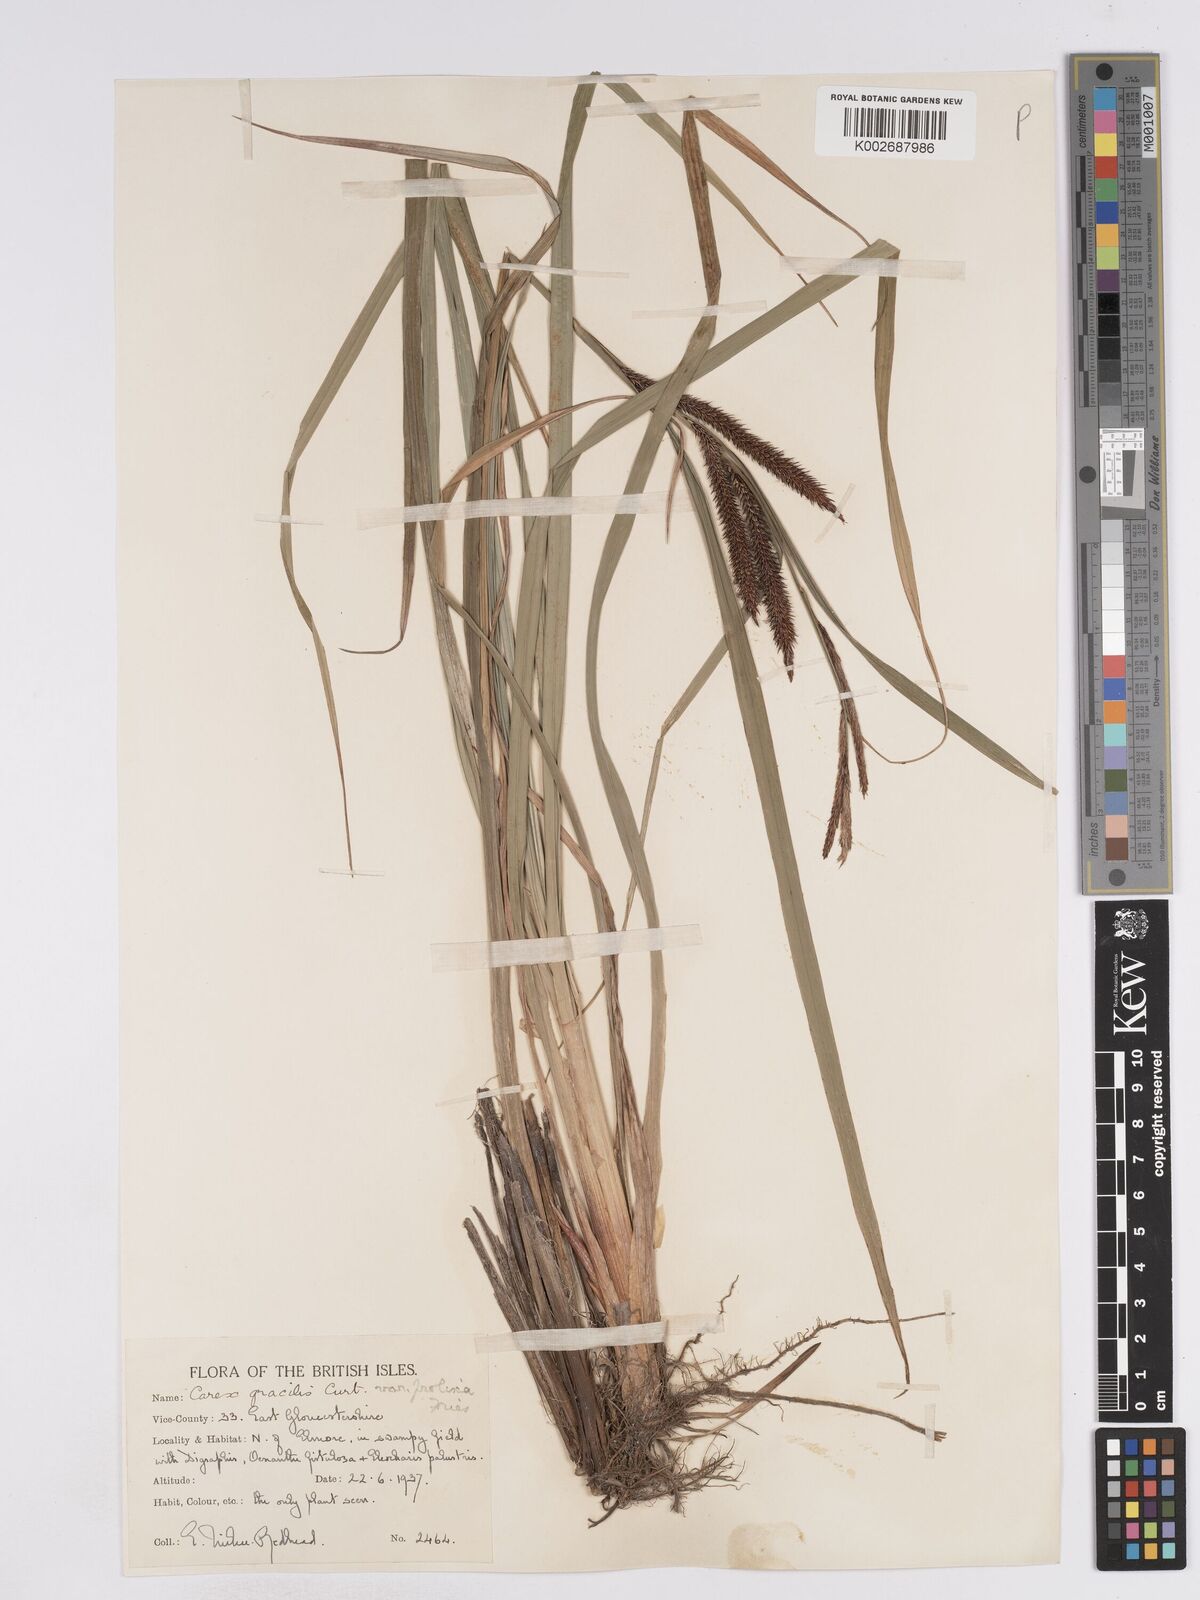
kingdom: Plantae
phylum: Tracheophyta
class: Liliopsida
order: Poales
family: Cyperaceae
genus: Carex
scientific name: Carex acuta
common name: Slender tufted-sedge
